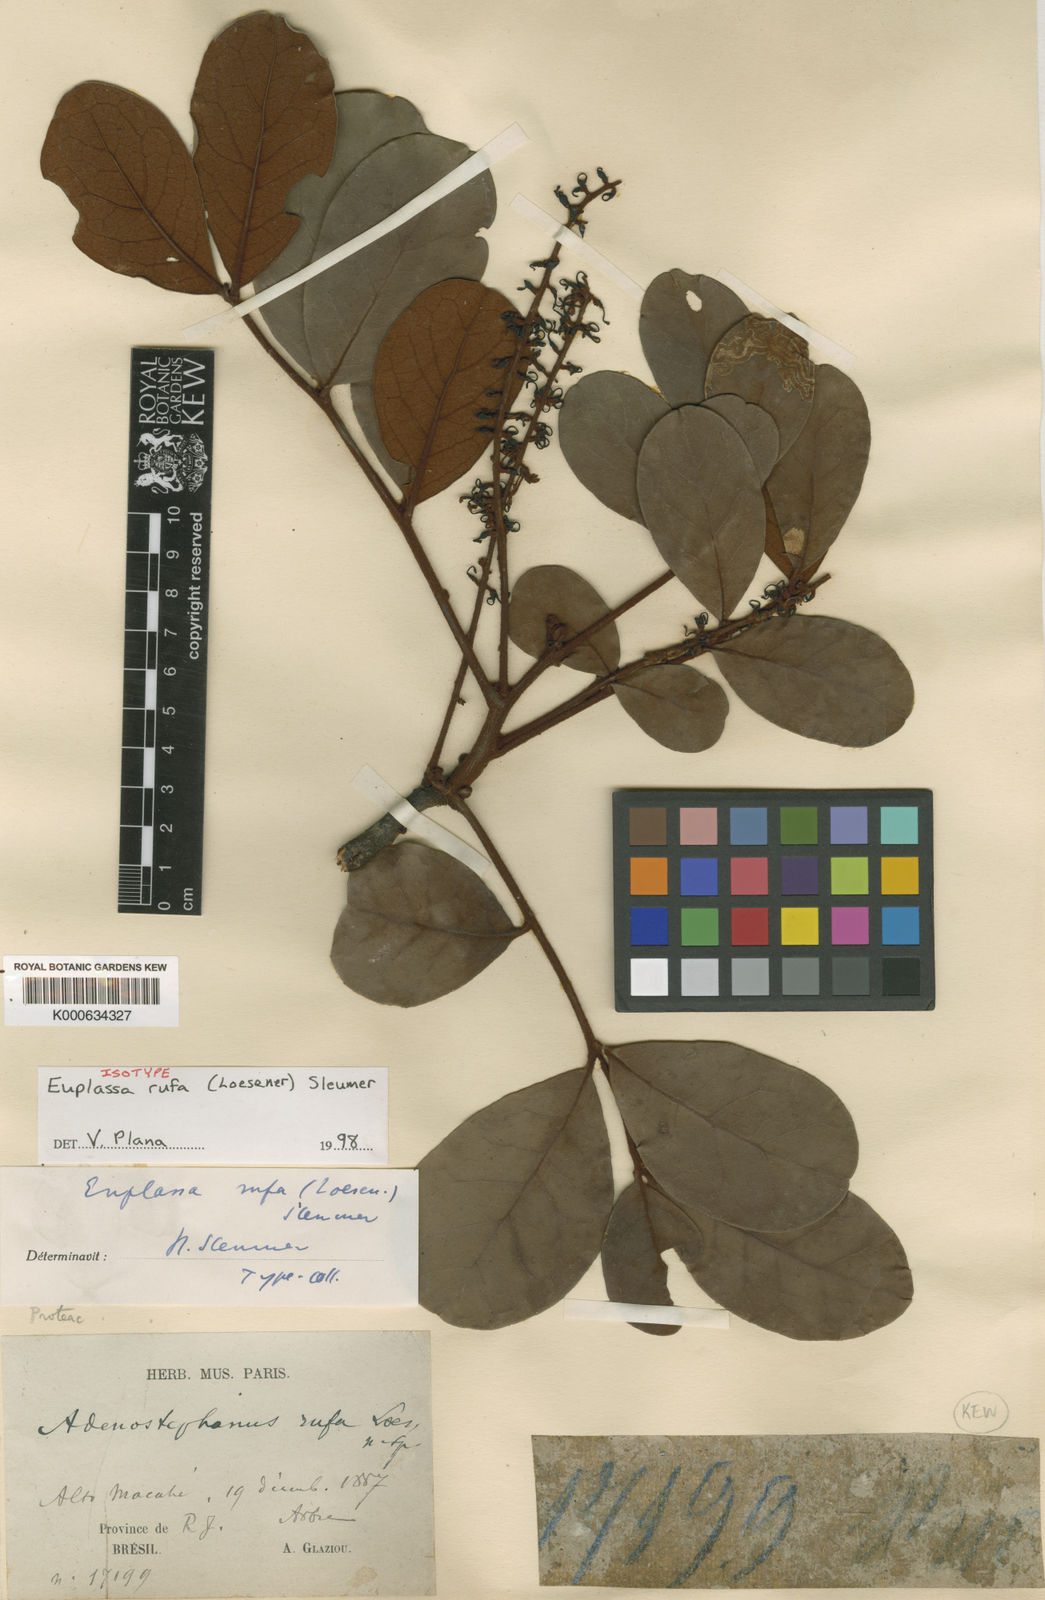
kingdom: Plantae
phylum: Tracheophyta
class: Magnoliopsida
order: Proteales
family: Proteaceae
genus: Euplassa
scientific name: Euplassa rufa
